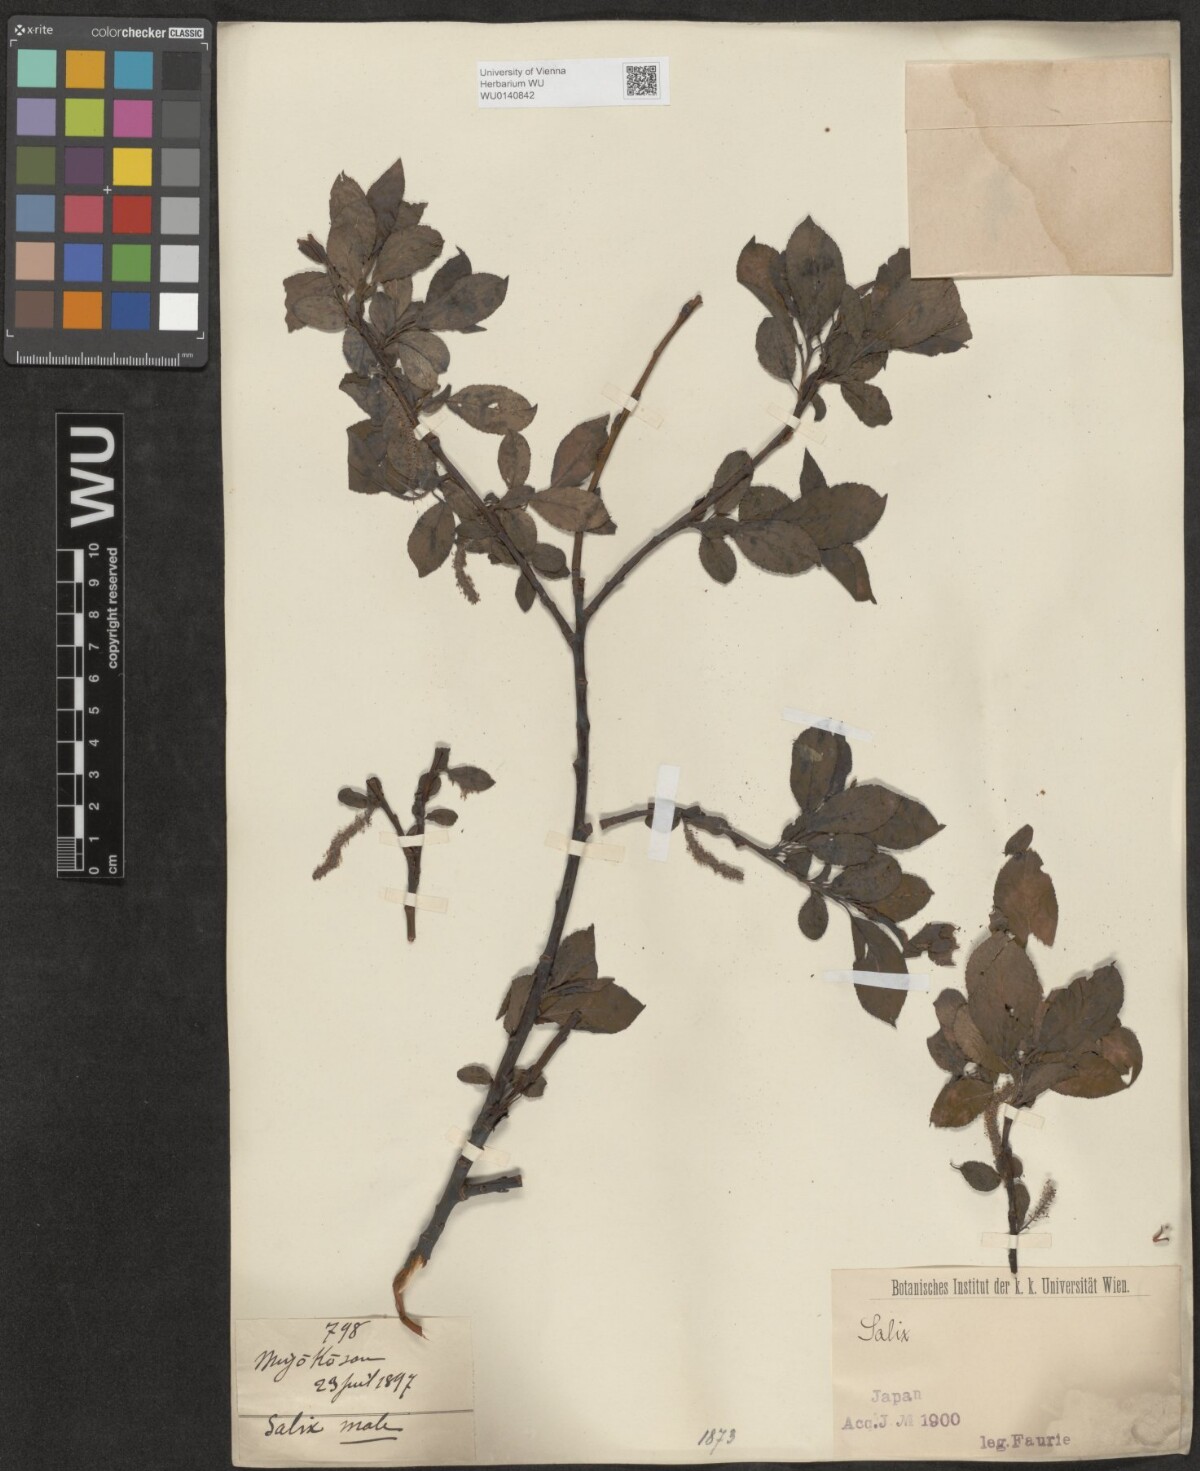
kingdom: Plantae
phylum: Tracheophyta
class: Magnoliopsida
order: Malpighiales
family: Salicaceae
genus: Salix
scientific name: Salix
